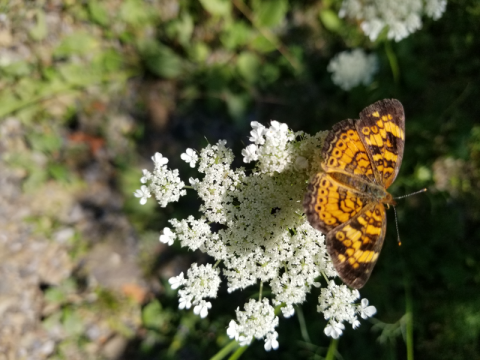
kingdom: Animalia
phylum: Arthropoda
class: Insecta
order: Lepidoptera
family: Nymphalidae
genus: Phyciodes
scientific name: Phyciodes vesta
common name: Vesta Crescent
